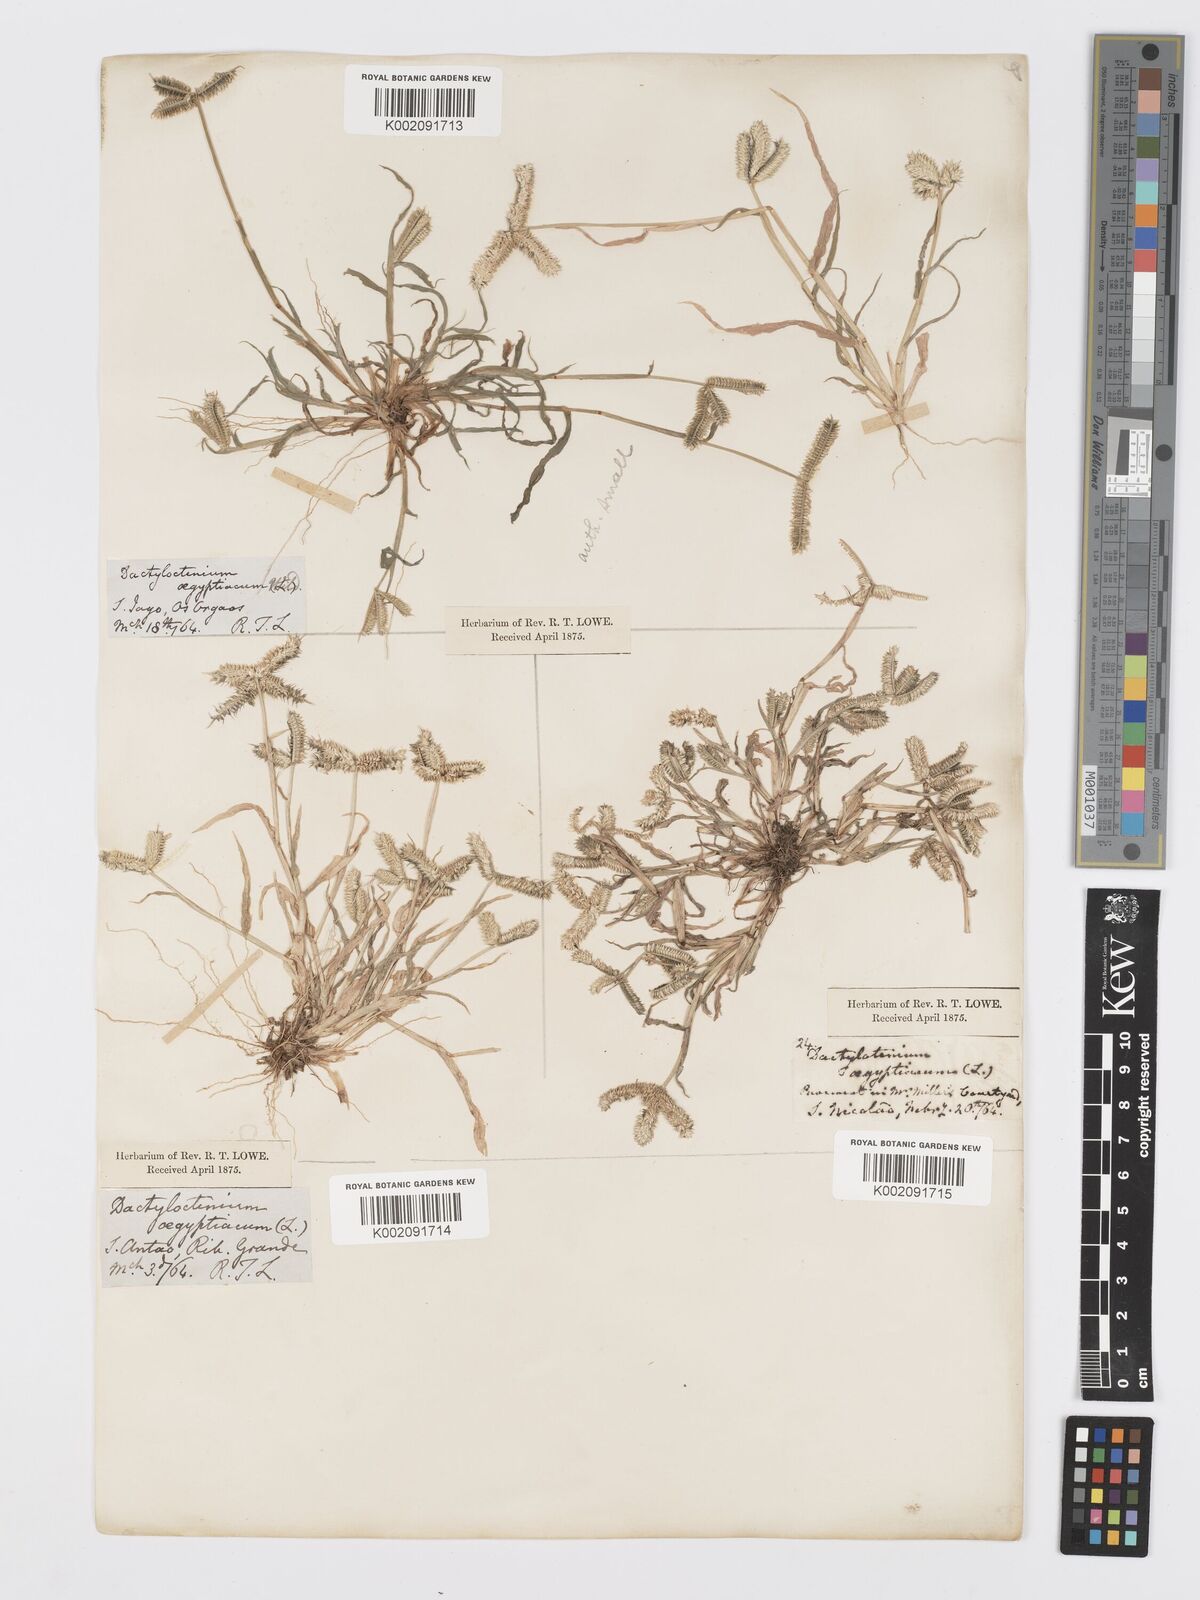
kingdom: Plantae
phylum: Tracheophyta
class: Liliopsida
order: Poales
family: Poaceae
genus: Dactyloctenium
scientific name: Dactyloctenium aegyptium
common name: Egyptian grass
